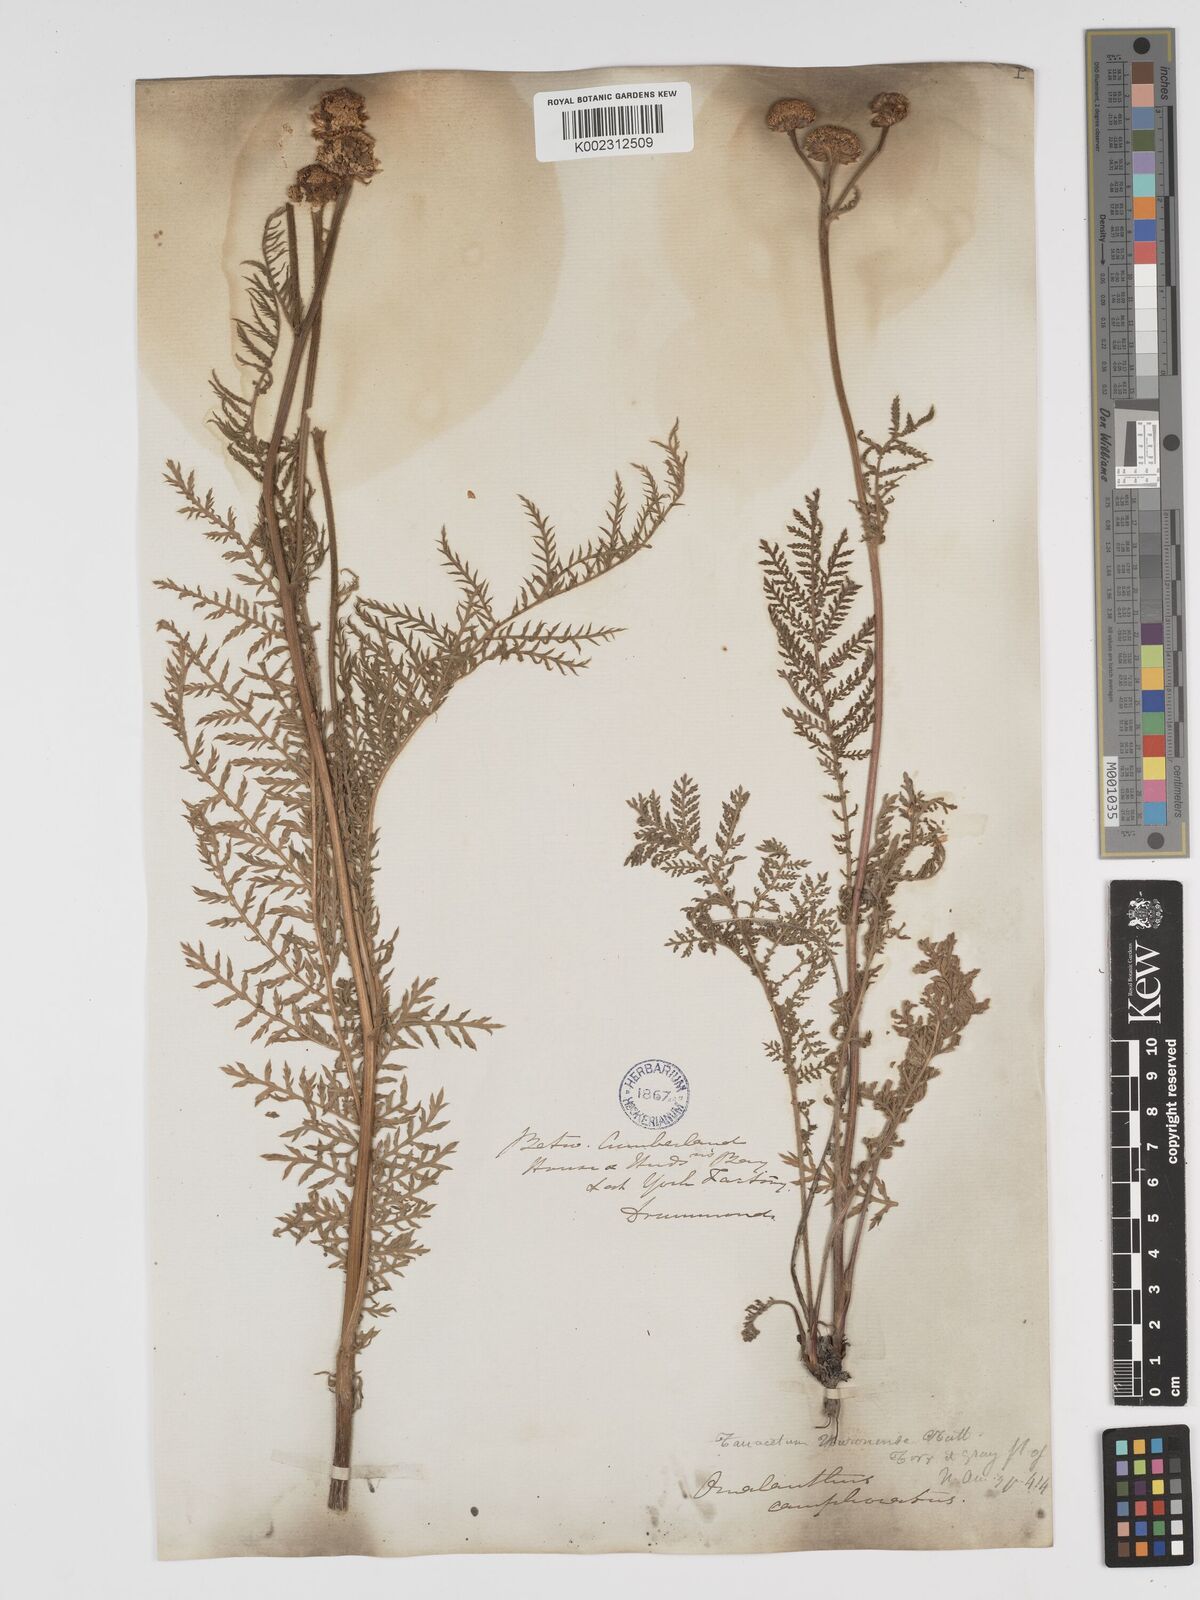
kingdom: Plantae
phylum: Tracheophyta
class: Magnoliopsida
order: Asterales
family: Asteraceae
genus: Tanacetum
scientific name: Tanacetum bipinnatum
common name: Dwarf tansy
